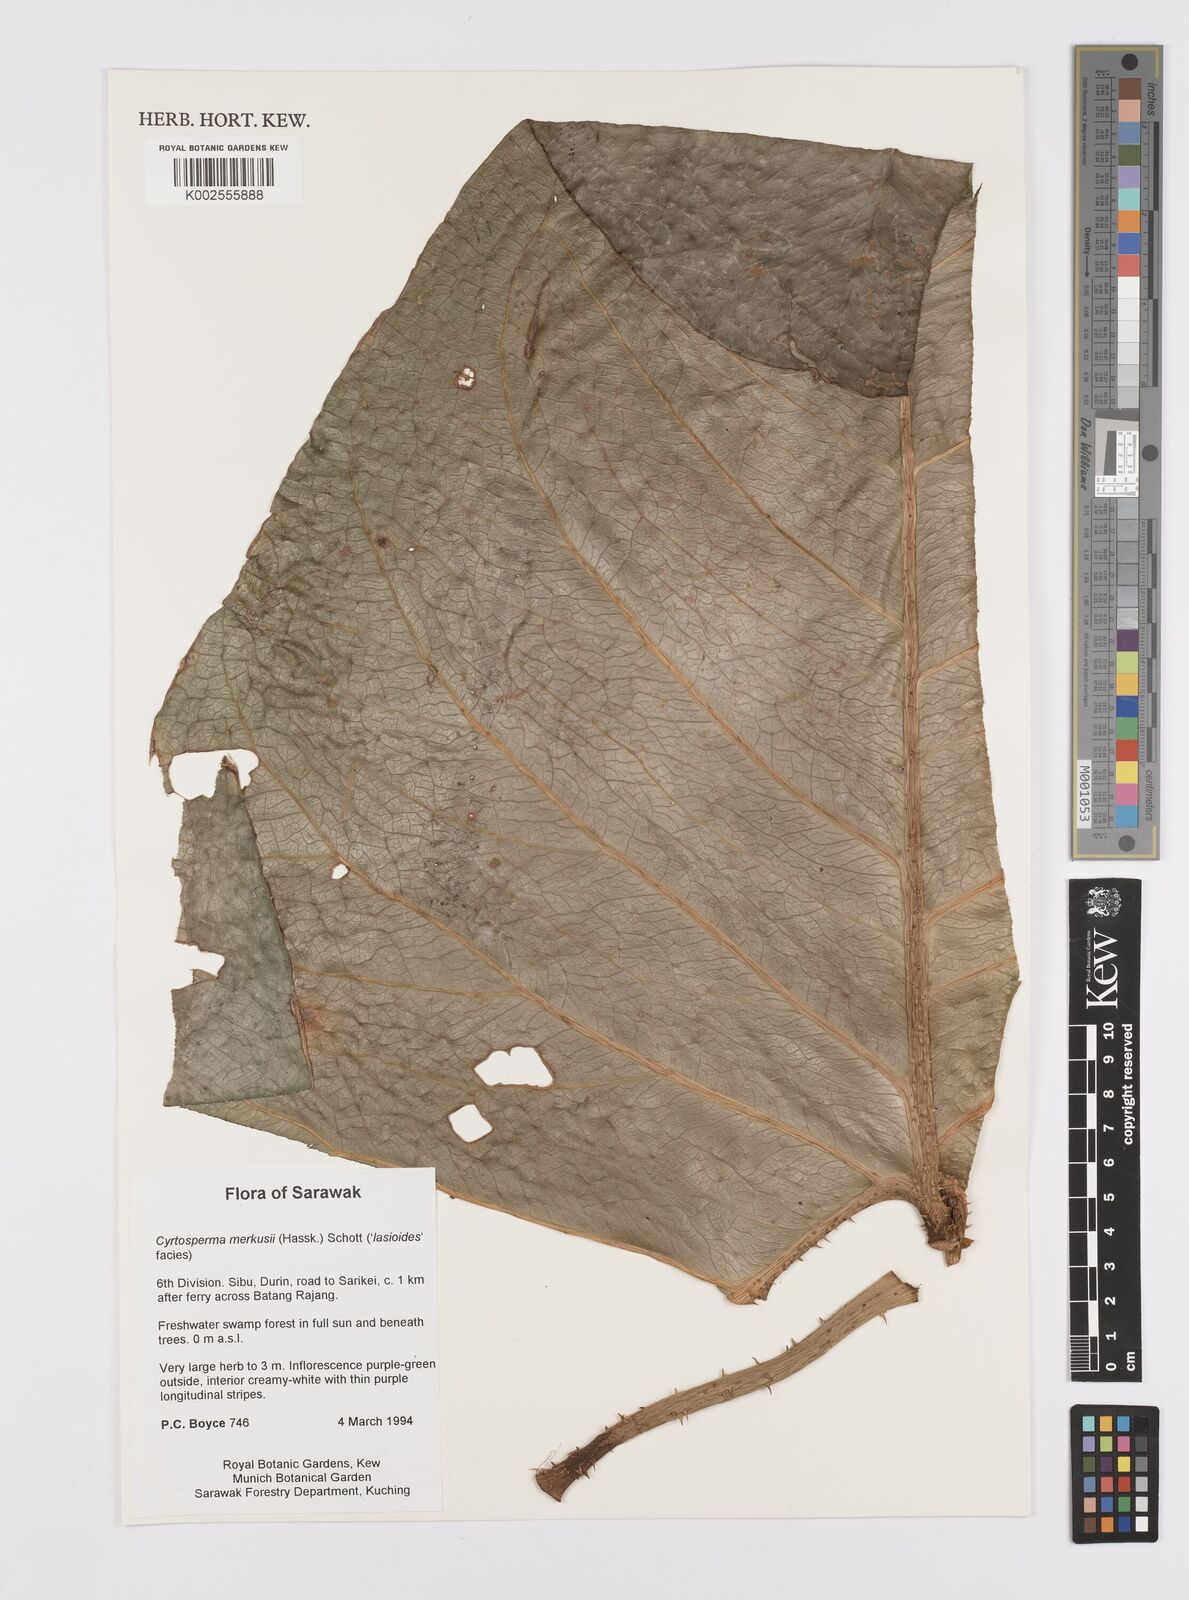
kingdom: Plantae
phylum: Tracheophyta
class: Liliopsida
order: Alismatales
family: Araceae
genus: Cyrtosperma
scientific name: Cyrtosperma merkusii
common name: Giant swamp-taro
